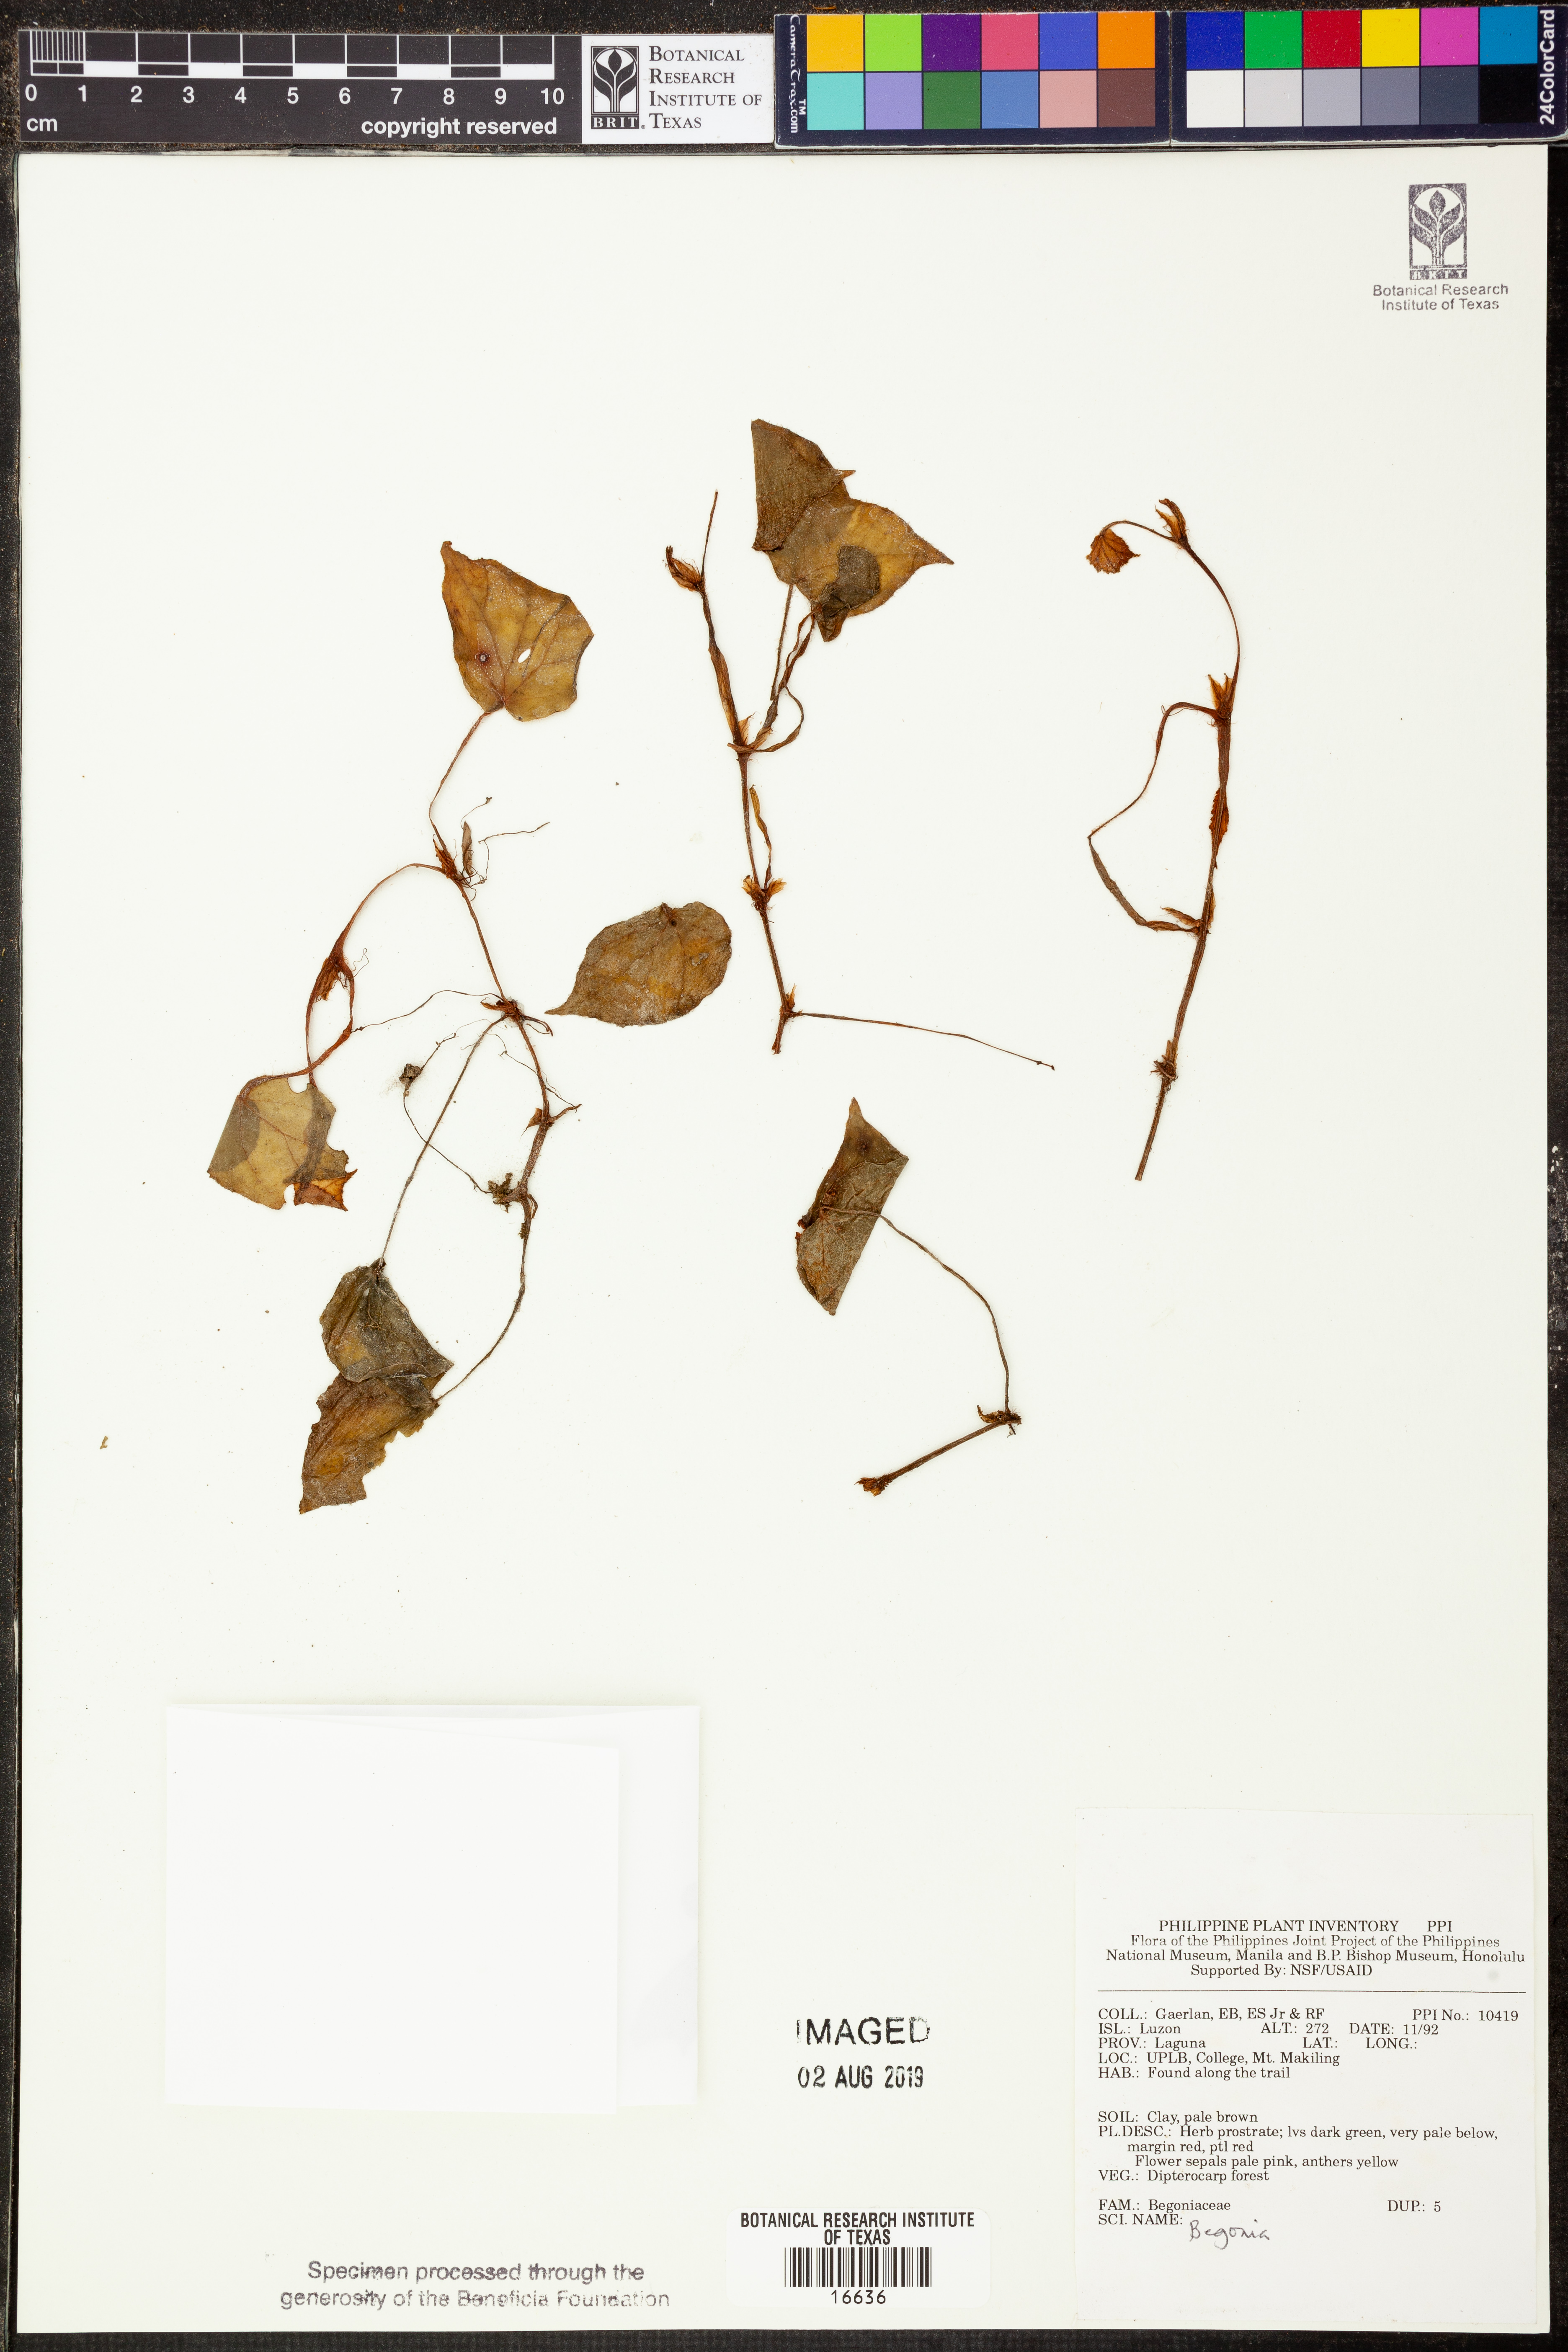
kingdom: Plantae
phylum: Tracheophyta
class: Magnoliopsida
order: Cucurbitales
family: Begoniaceae
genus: Begonia
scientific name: Begonia
